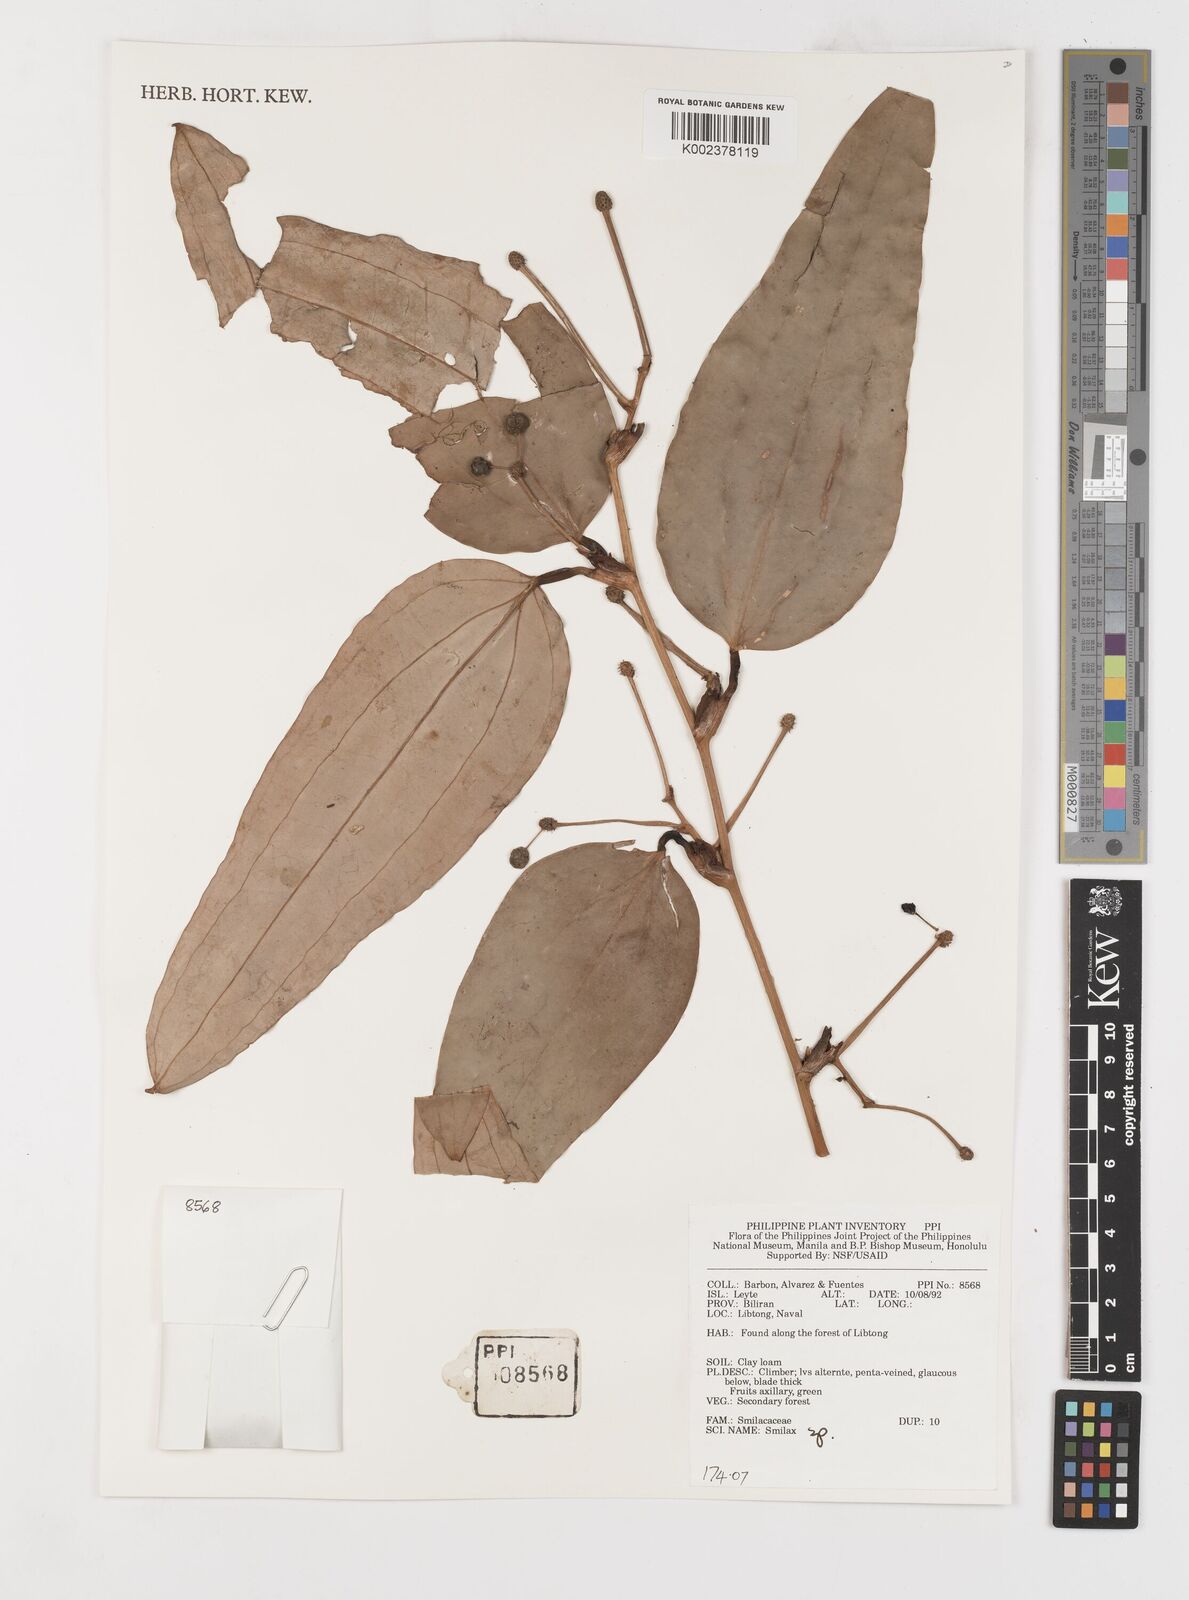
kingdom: Plantae
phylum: Tracheophyta
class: Liliopsida
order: Liliales
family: Smilacaceae
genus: Smilax
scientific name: Smilax
